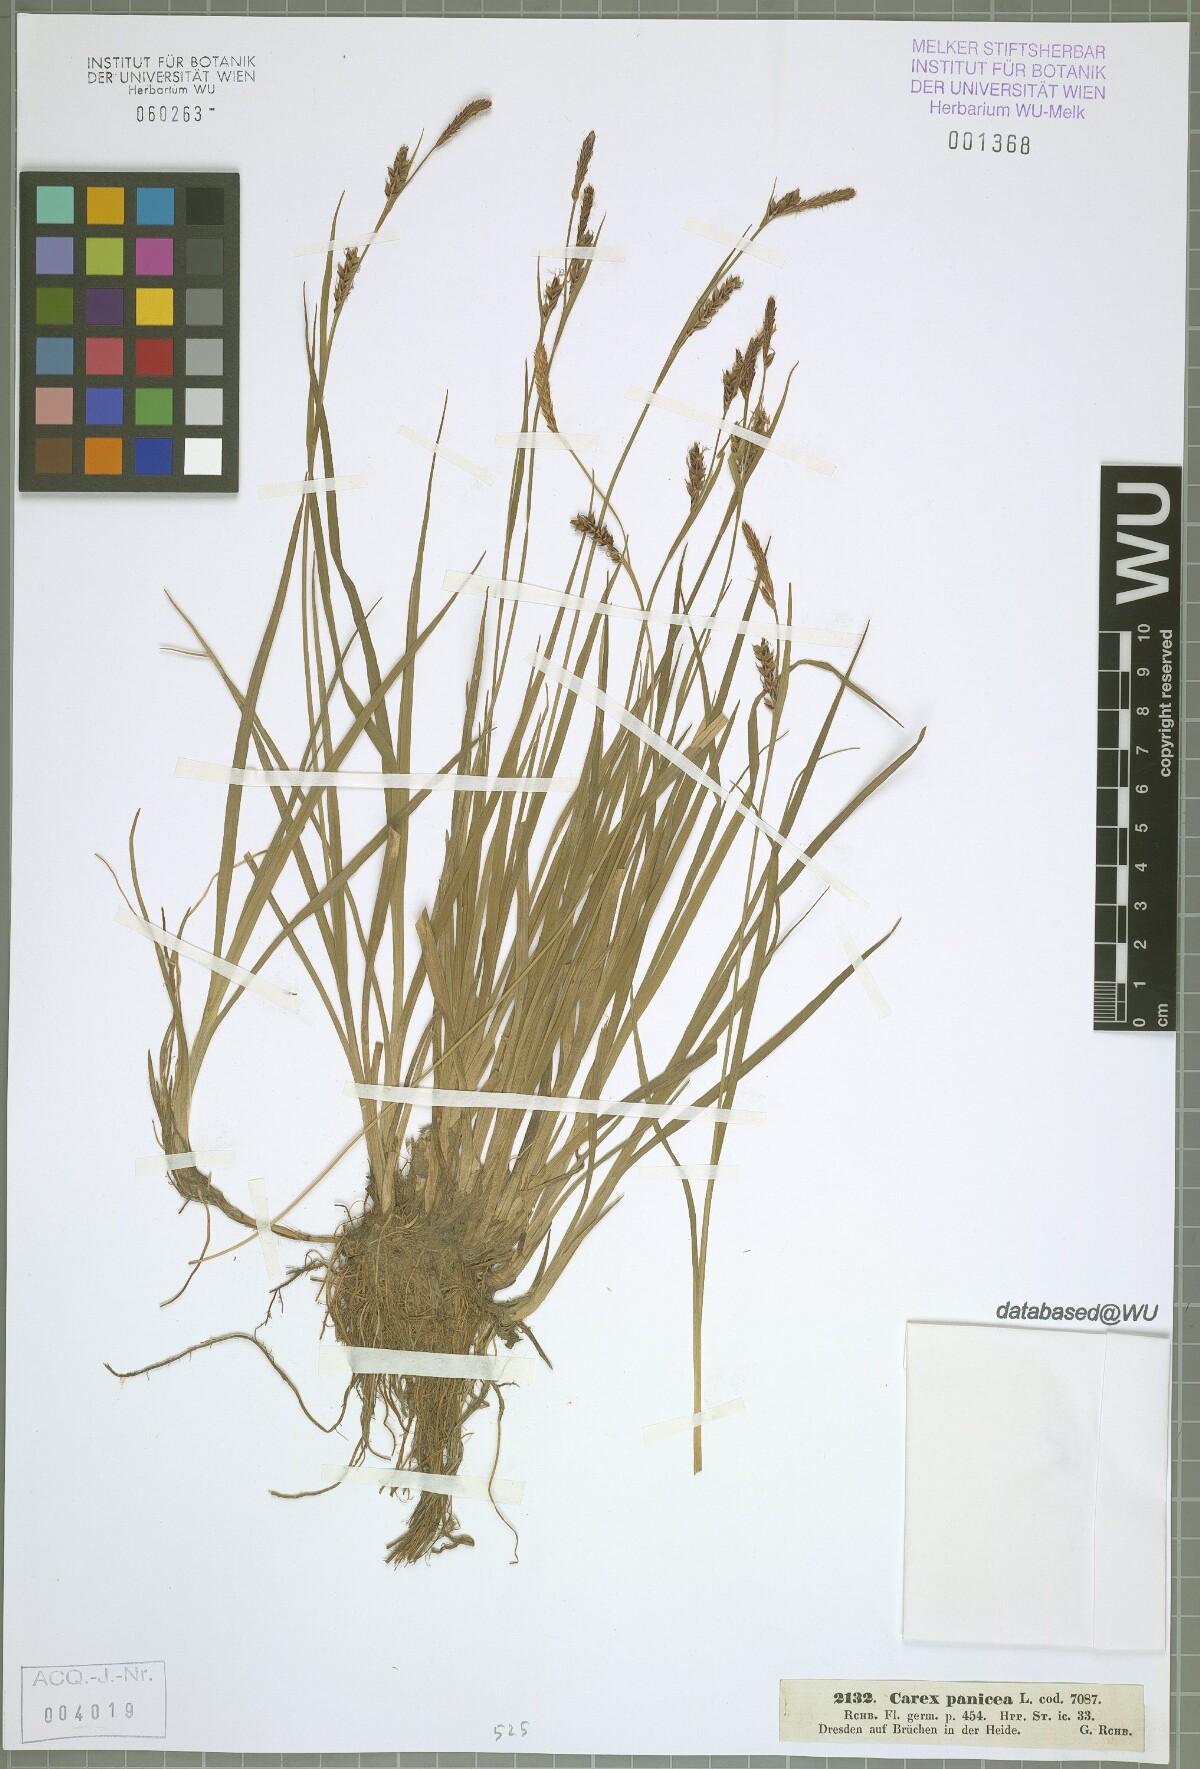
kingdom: Plantae
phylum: Tracheophyta
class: Liliopsida
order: Poales
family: Cyperaceae
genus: Carex
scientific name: Carex panicea
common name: Carnation sedge
